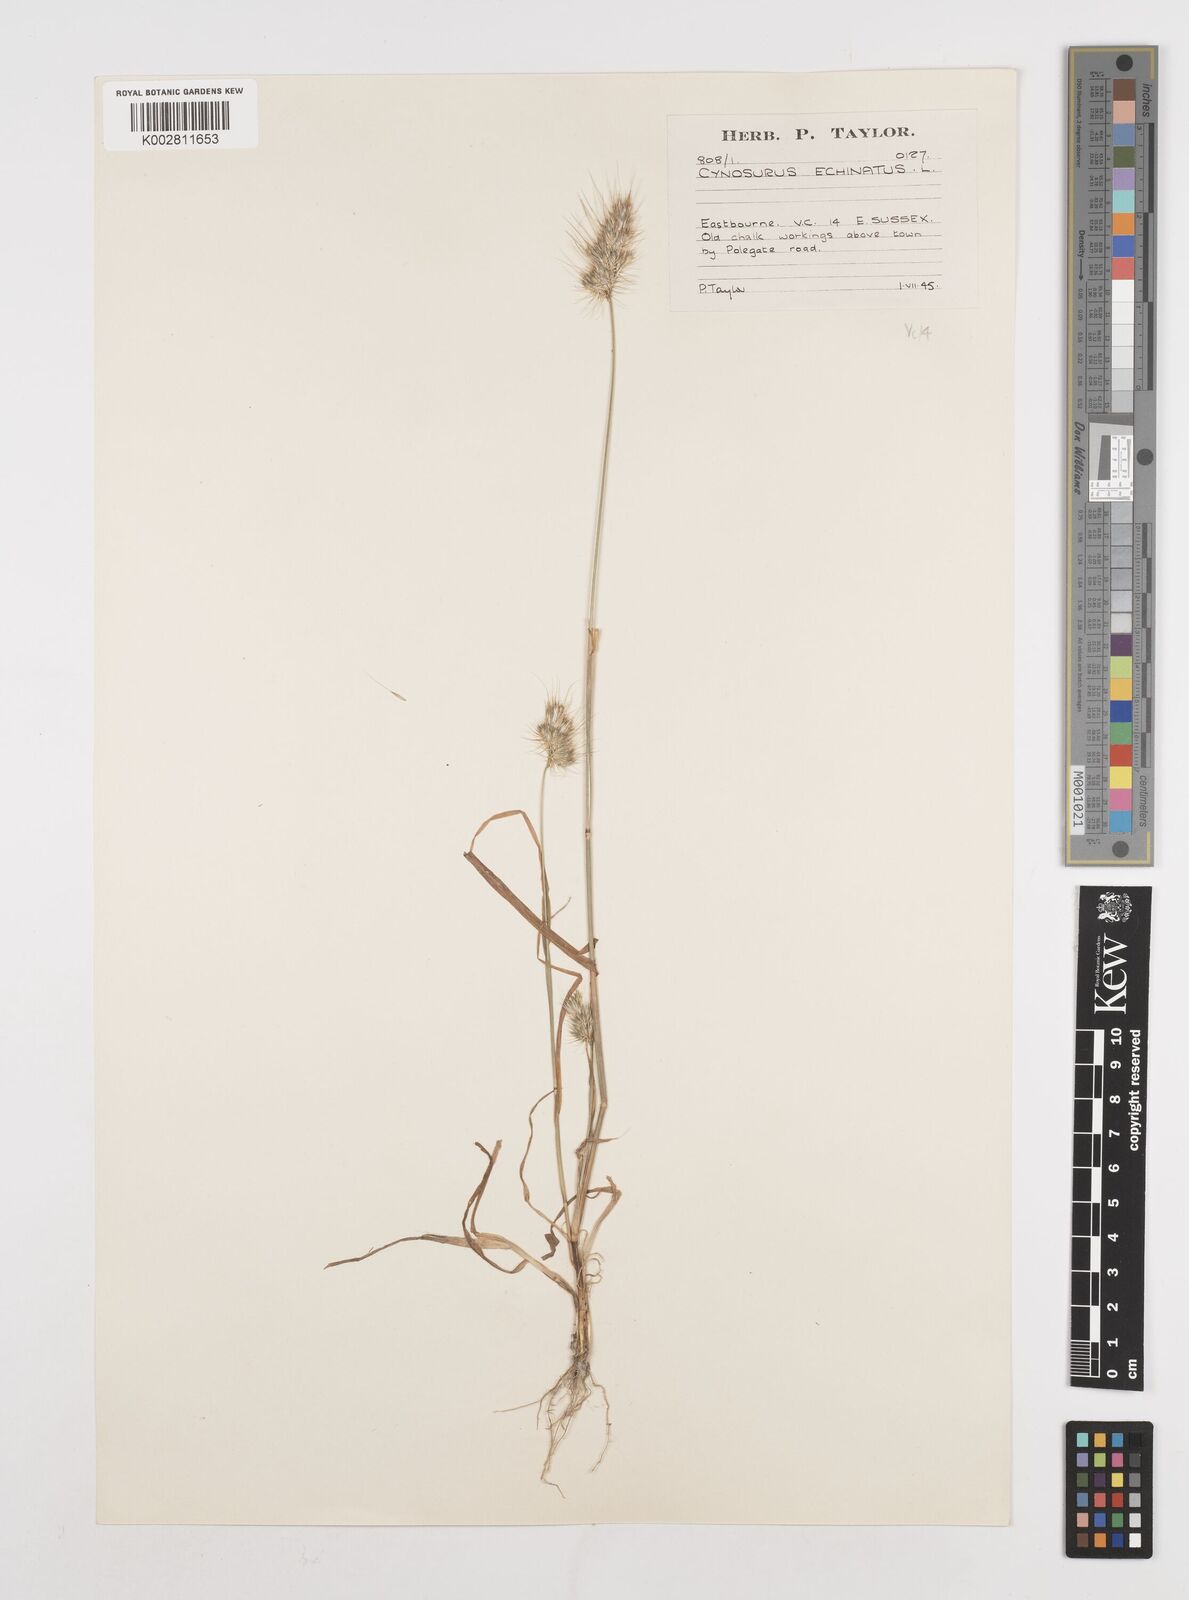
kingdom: Plantae
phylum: Tracheophyta
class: Liliopsida
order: Poales
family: Poaceae
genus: Cynosurus
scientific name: Cynosurus echinatus
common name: Rough dog's-tail
